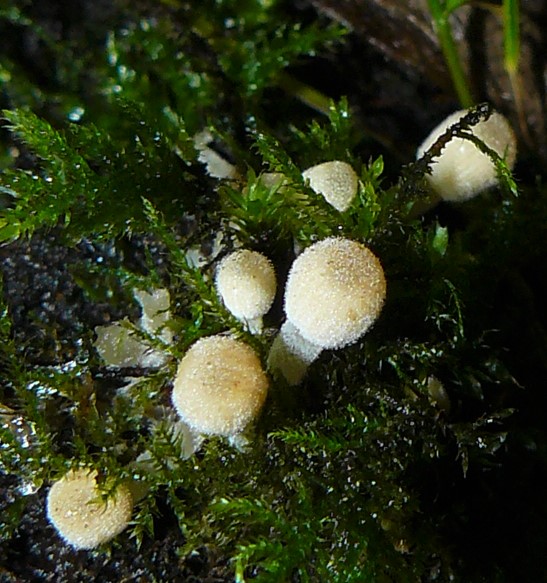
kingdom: Fungi
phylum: Basidiomycota
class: Agaricomycetes
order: Agaricales
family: Psathyrellaceae
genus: Coprinellus
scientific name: Coprinellus disseminatus
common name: bredsået blækhat
